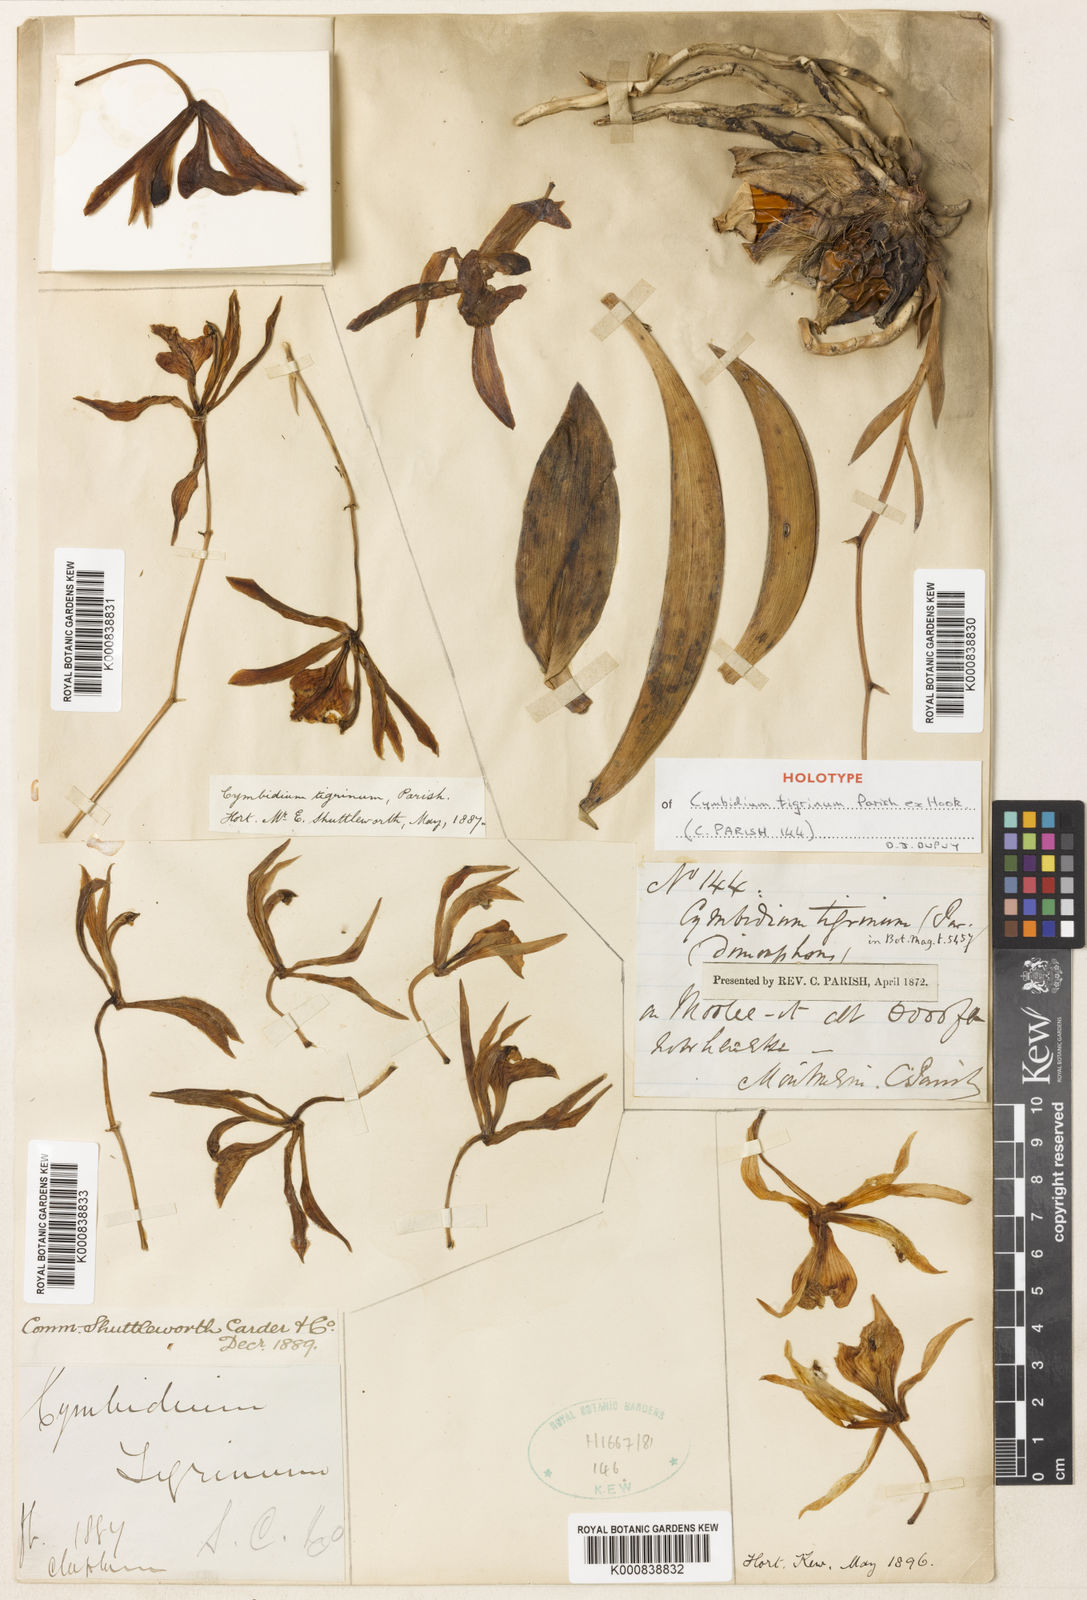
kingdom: Plantae
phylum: Tracheophyta
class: Liliopsida
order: Asparagales
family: Orchidaceae
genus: Cymbidium
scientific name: Cymbidium tigrinum
